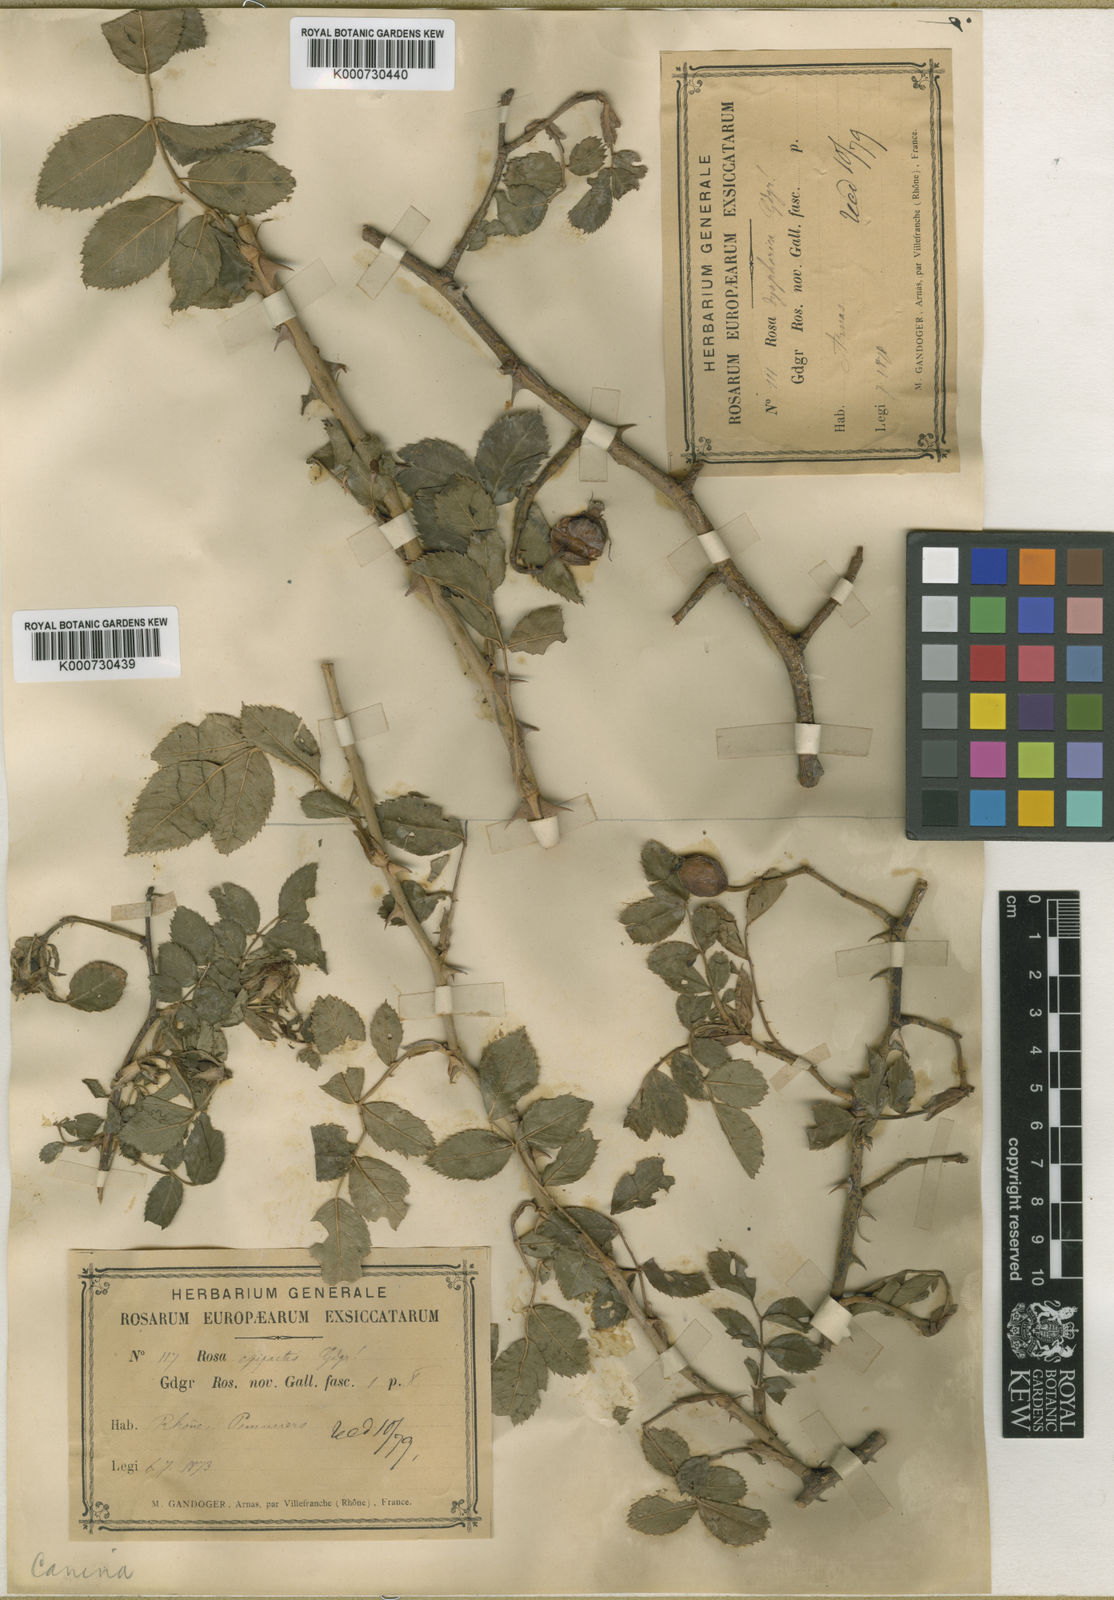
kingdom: Plantae
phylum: Tracheophyta
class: Magnoliopsida
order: Rosales
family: Rosaceae
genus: Rosa
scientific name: Rosa canina
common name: Dog rose
